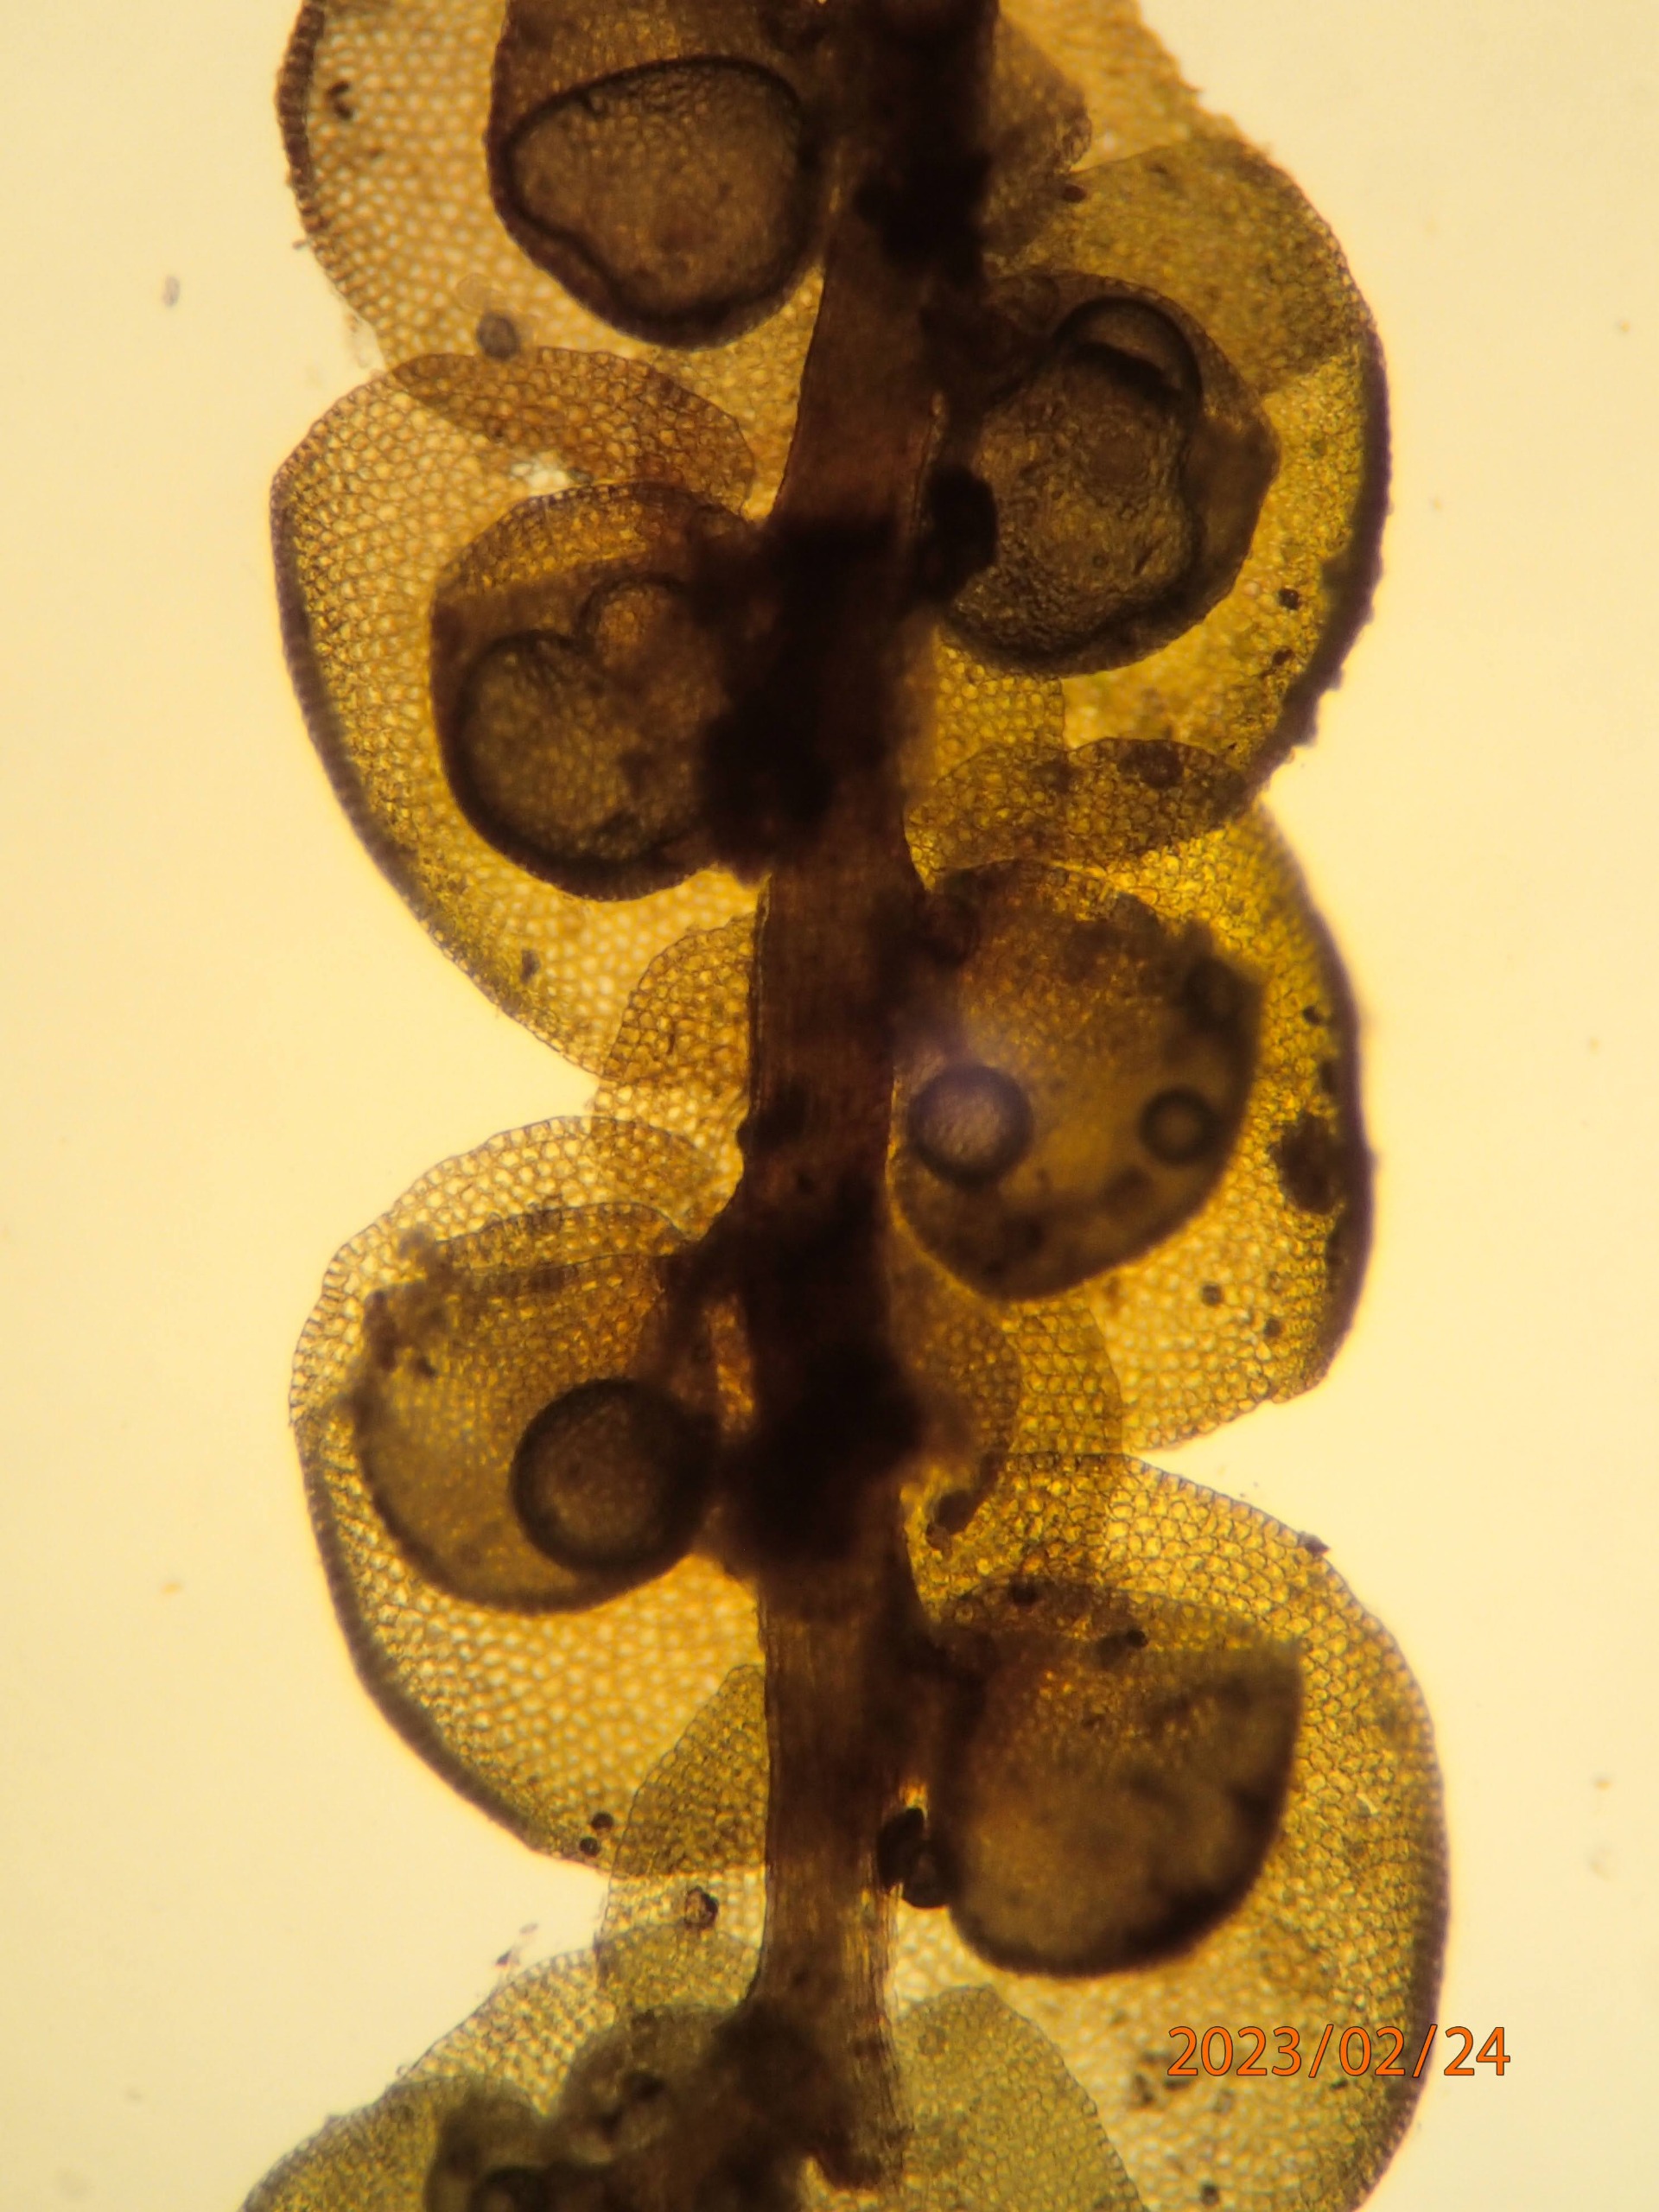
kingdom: Plantae
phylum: Marchantiophyta
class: Jungermanniopsida
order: Porellales
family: Frullaniaceae
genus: Frullania
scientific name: Frullania dilatata
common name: Mat bronzemos
